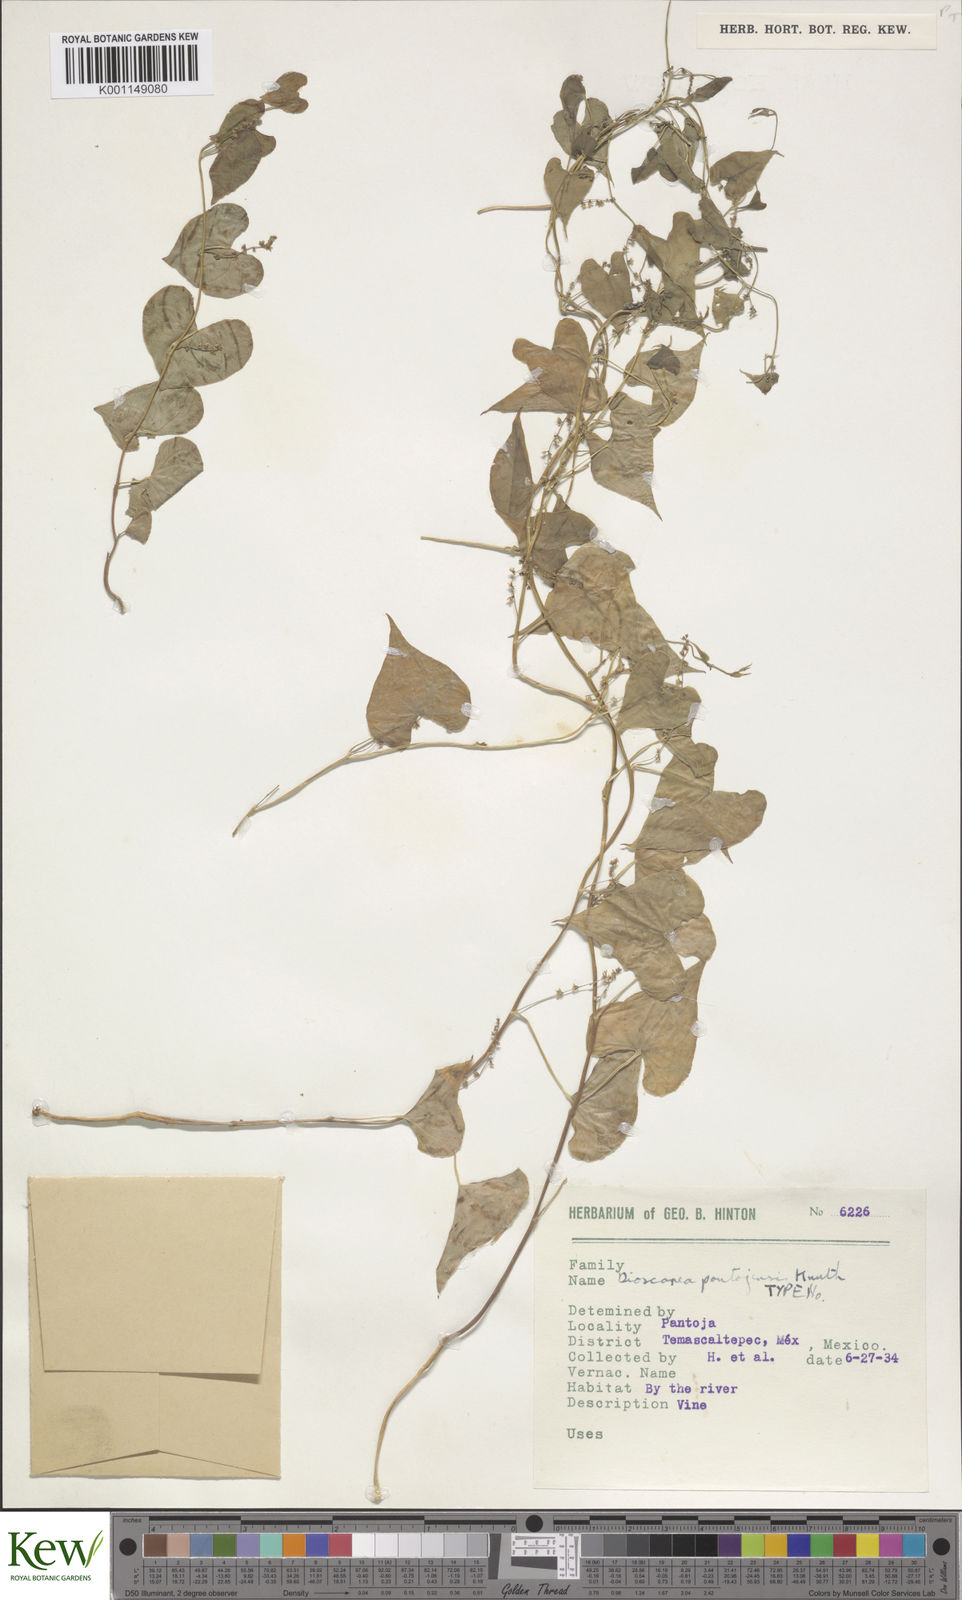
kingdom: Plantae
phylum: Tracheophyta
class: Liliopsida
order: Dioscoreales
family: Dioscoreaceae
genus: Dioscorea
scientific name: Dioscorea pantojensis
